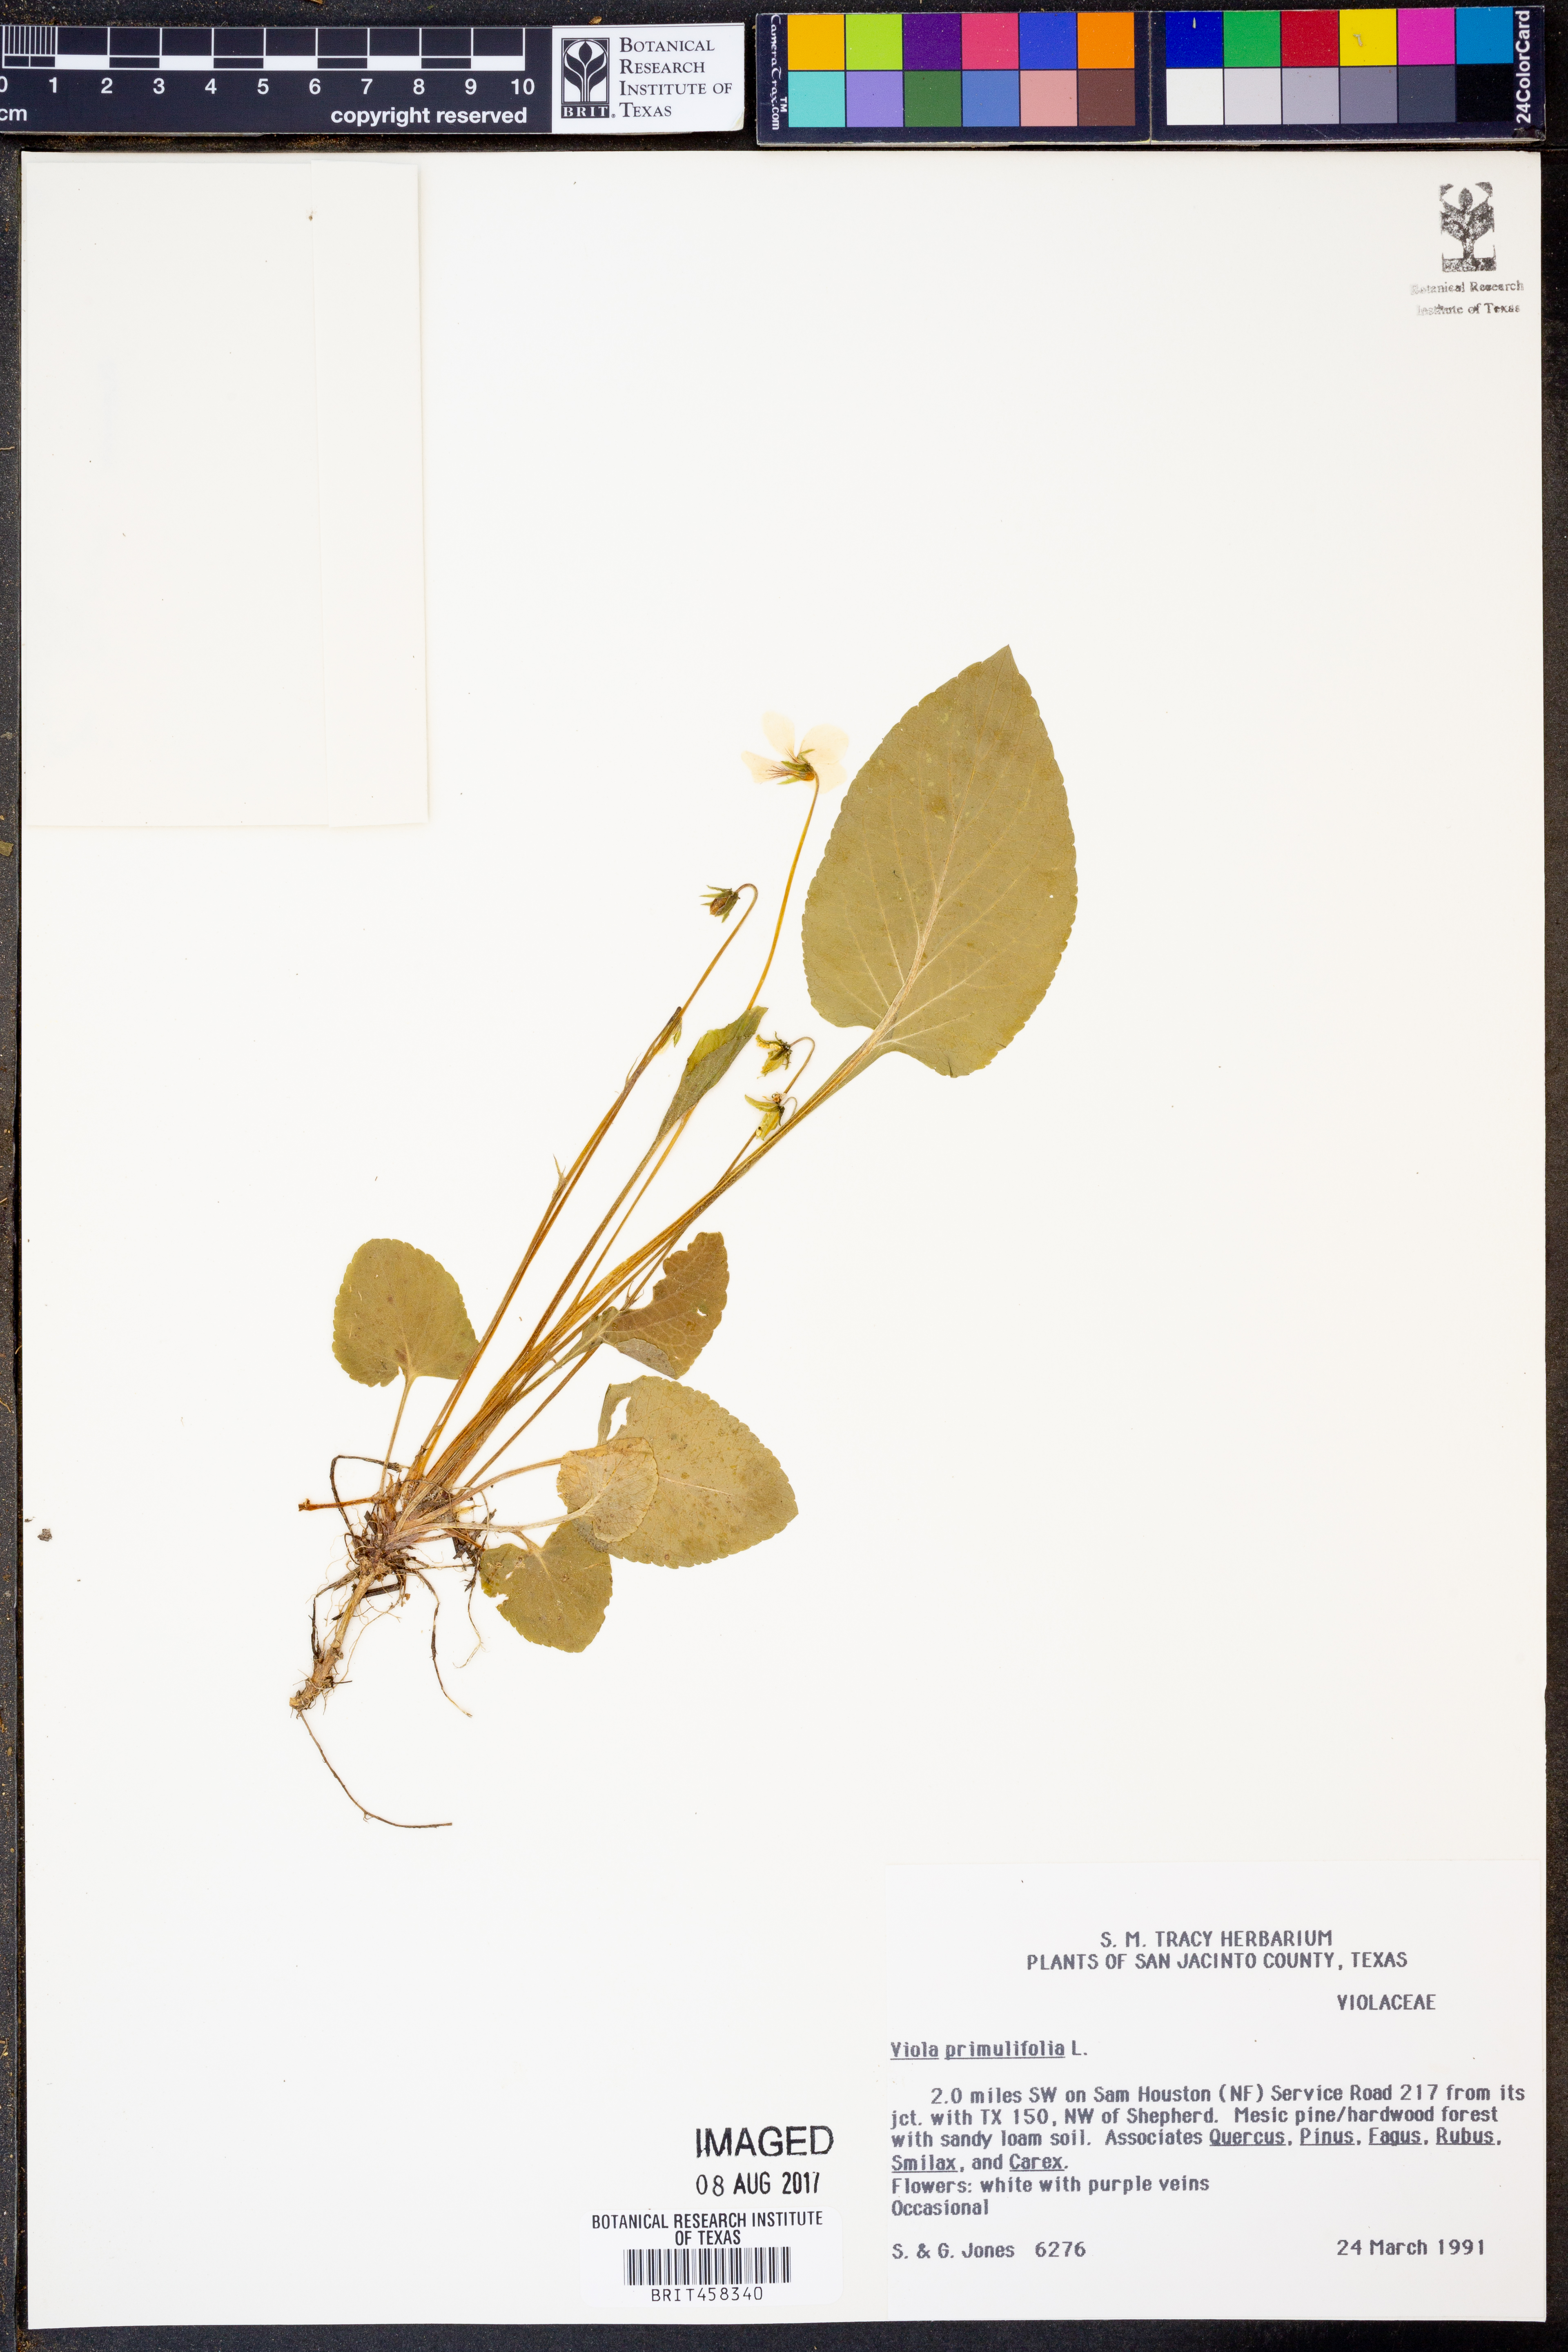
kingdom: Plantae
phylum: Tracheophyta
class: Magnoliopsida
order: Malpighiales
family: Violaceae
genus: Viola
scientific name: Viola primulifolia
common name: Primrose-leaf violet
